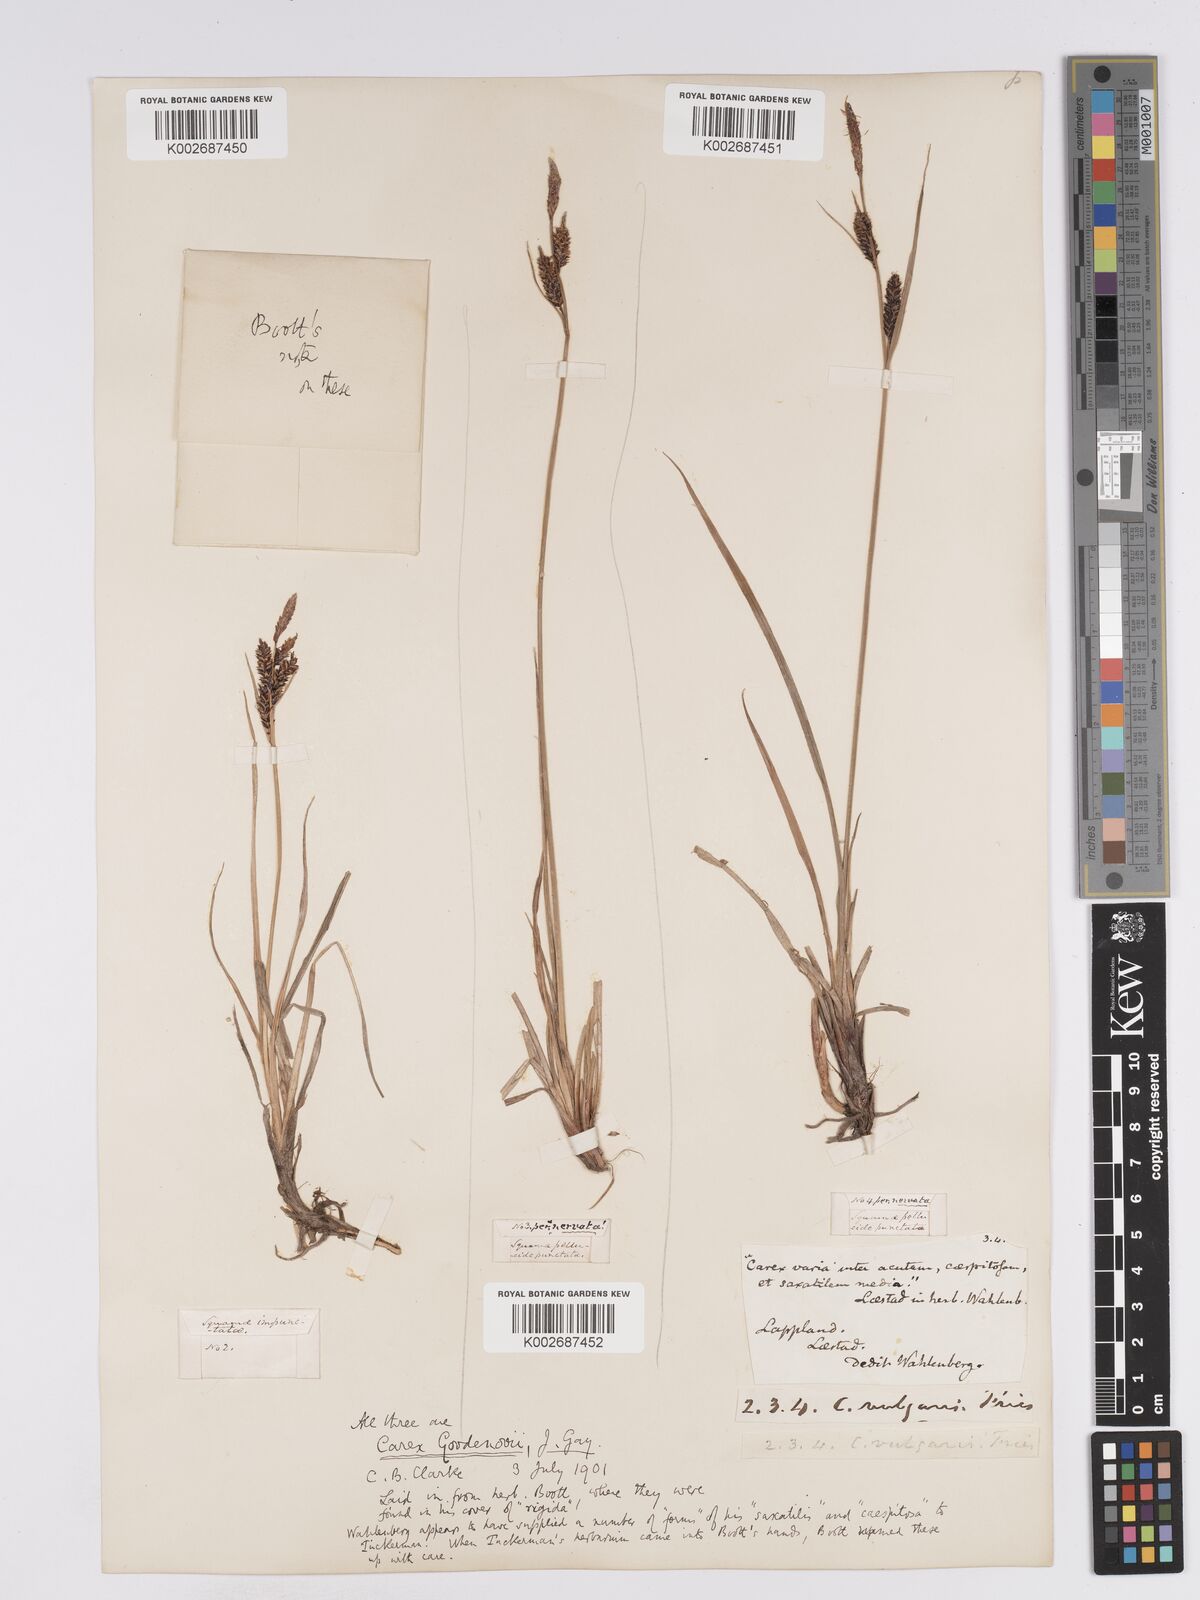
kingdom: Plantae
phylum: Tracheophyta
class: Liliopsida
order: Poales
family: Cyperaceae
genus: Carex
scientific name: Carex nigra
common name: Common sedge
